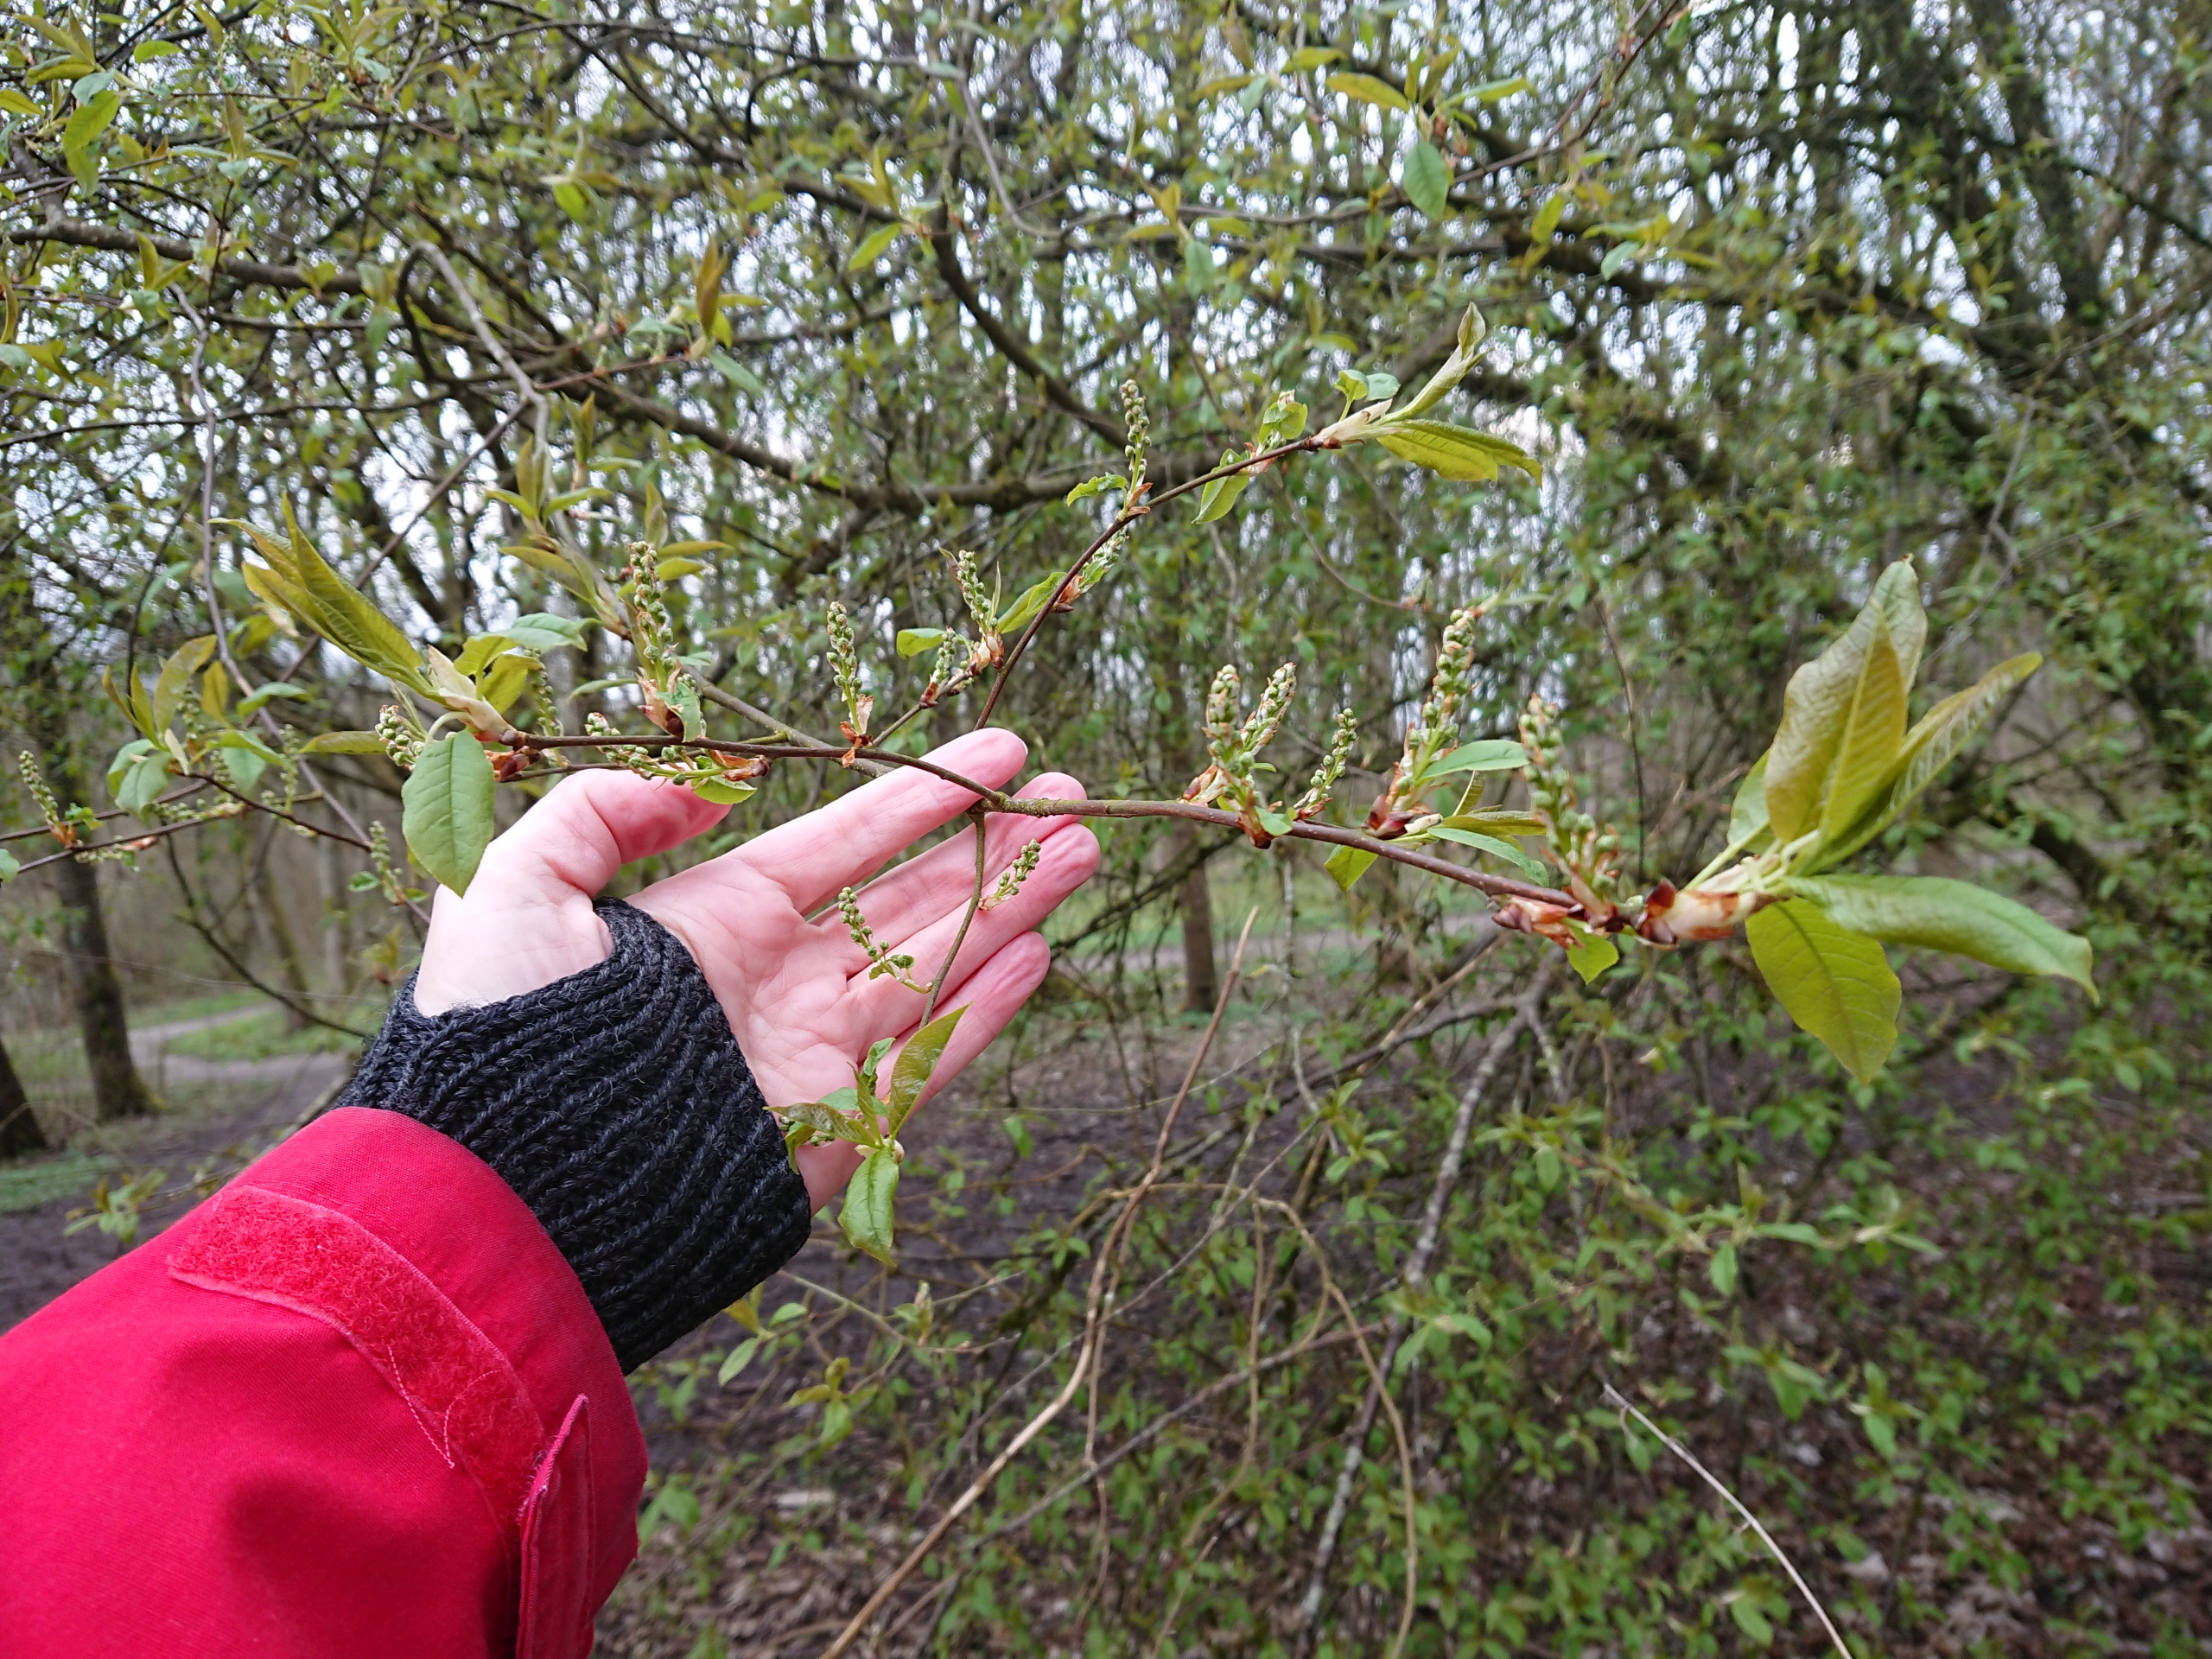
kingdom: Plantae
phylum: Tracheophyta
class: Magnoliopsida
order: Rosales
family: Rosaceae
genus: Prunus
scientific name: Prunus padus
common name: Almindelig hæg
